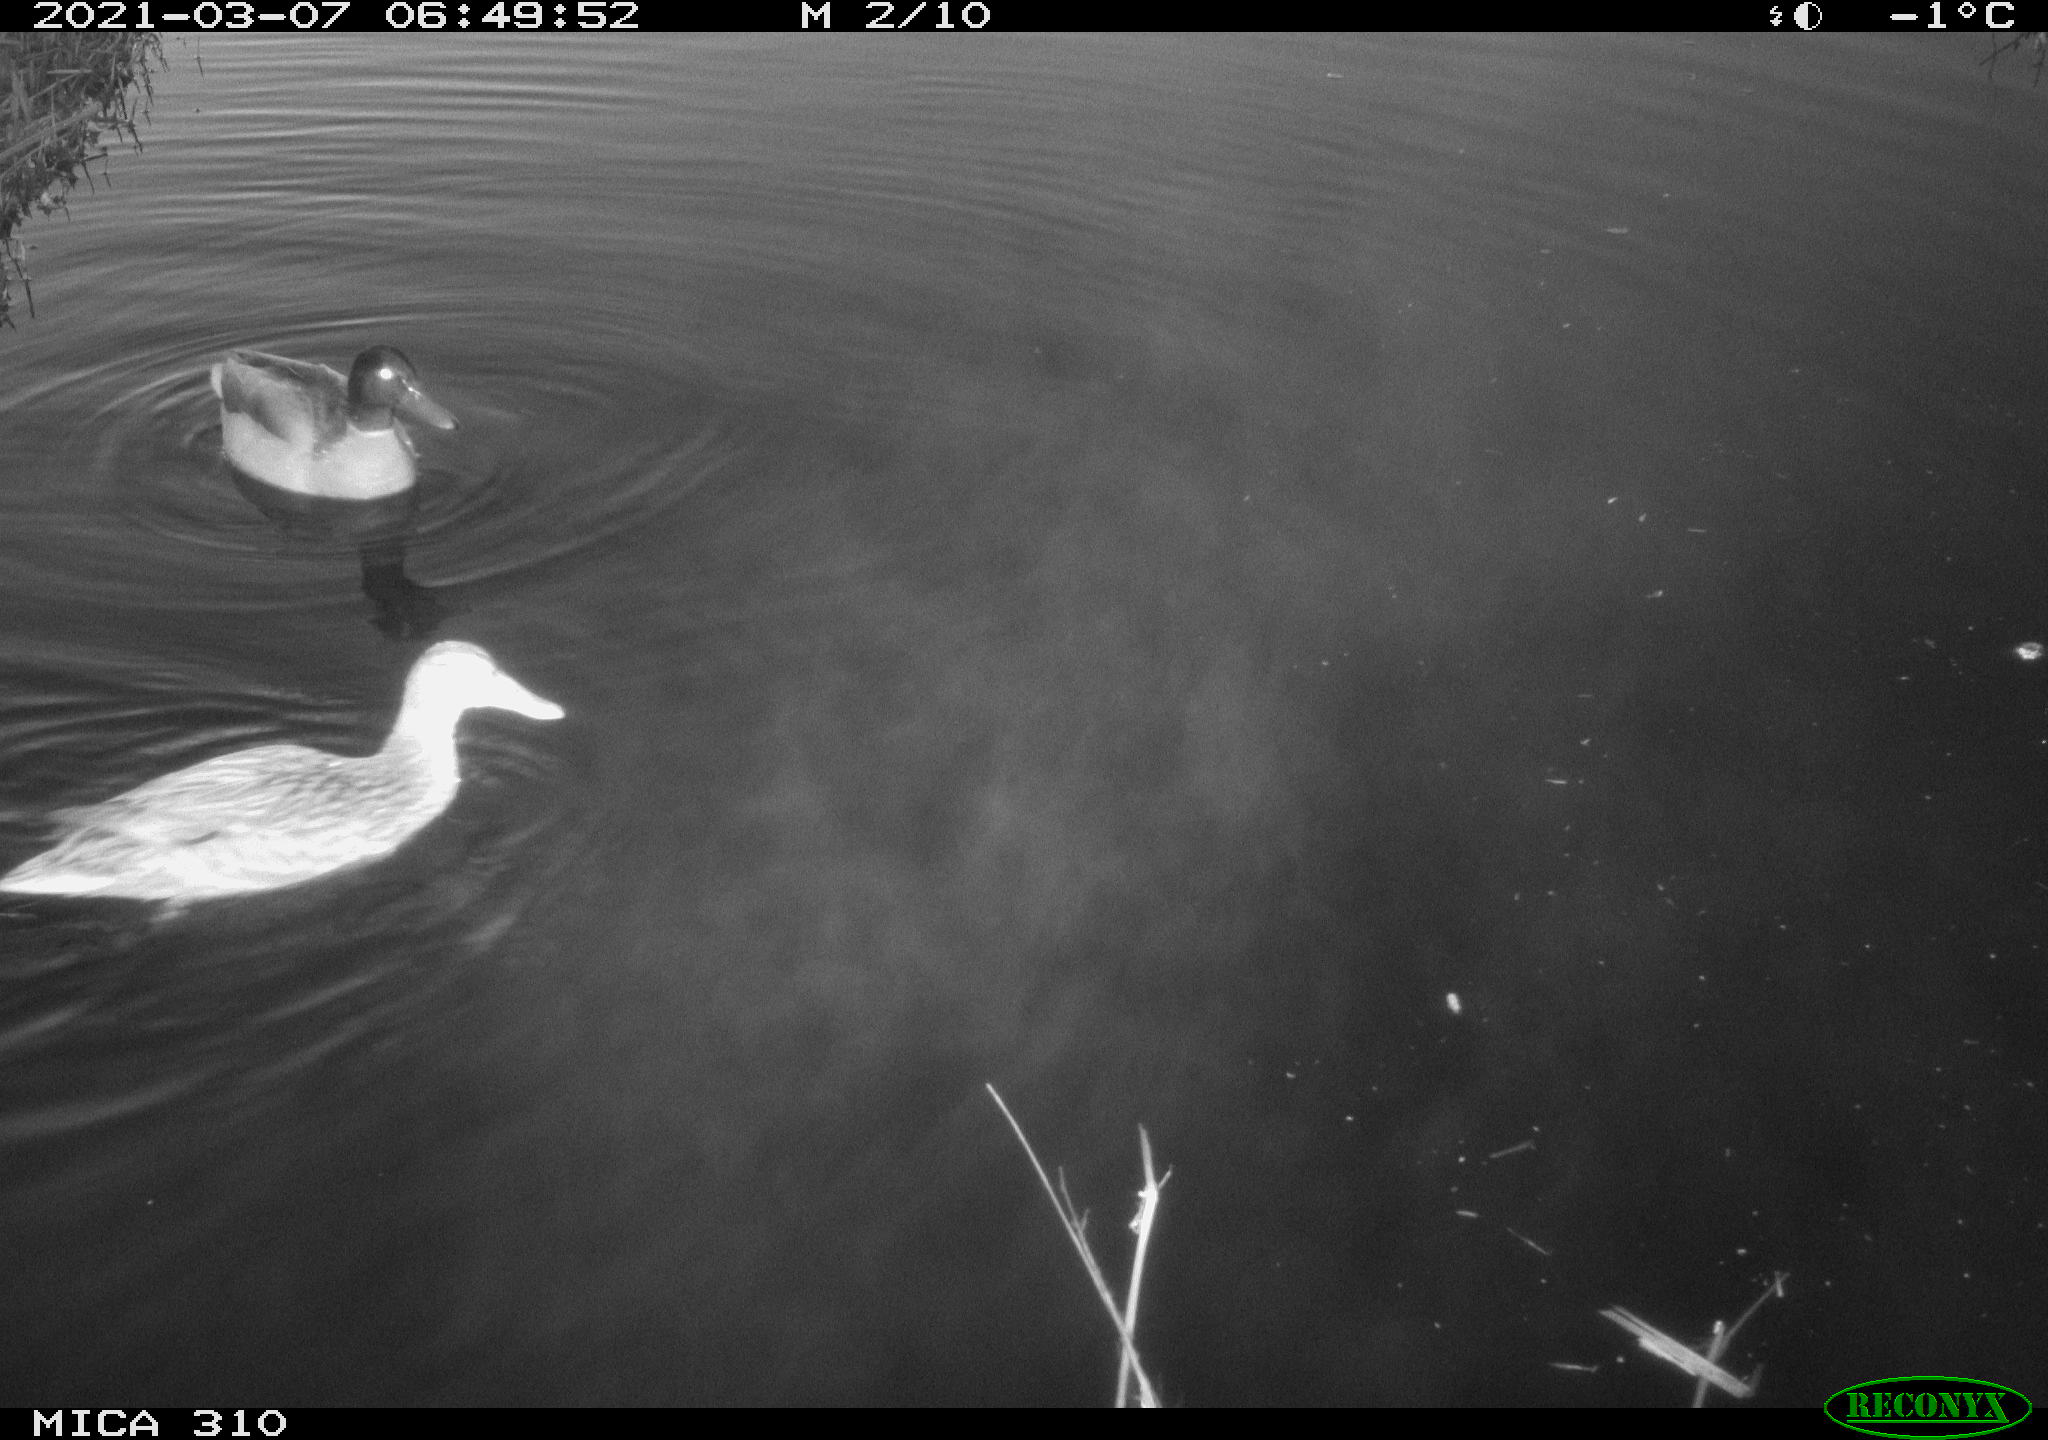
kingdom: Animalia
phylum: Chordata
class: Aves
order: Anseriformes
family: Anatidae
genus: Anas
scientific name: Anas platyrhynchos
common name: Mallard
